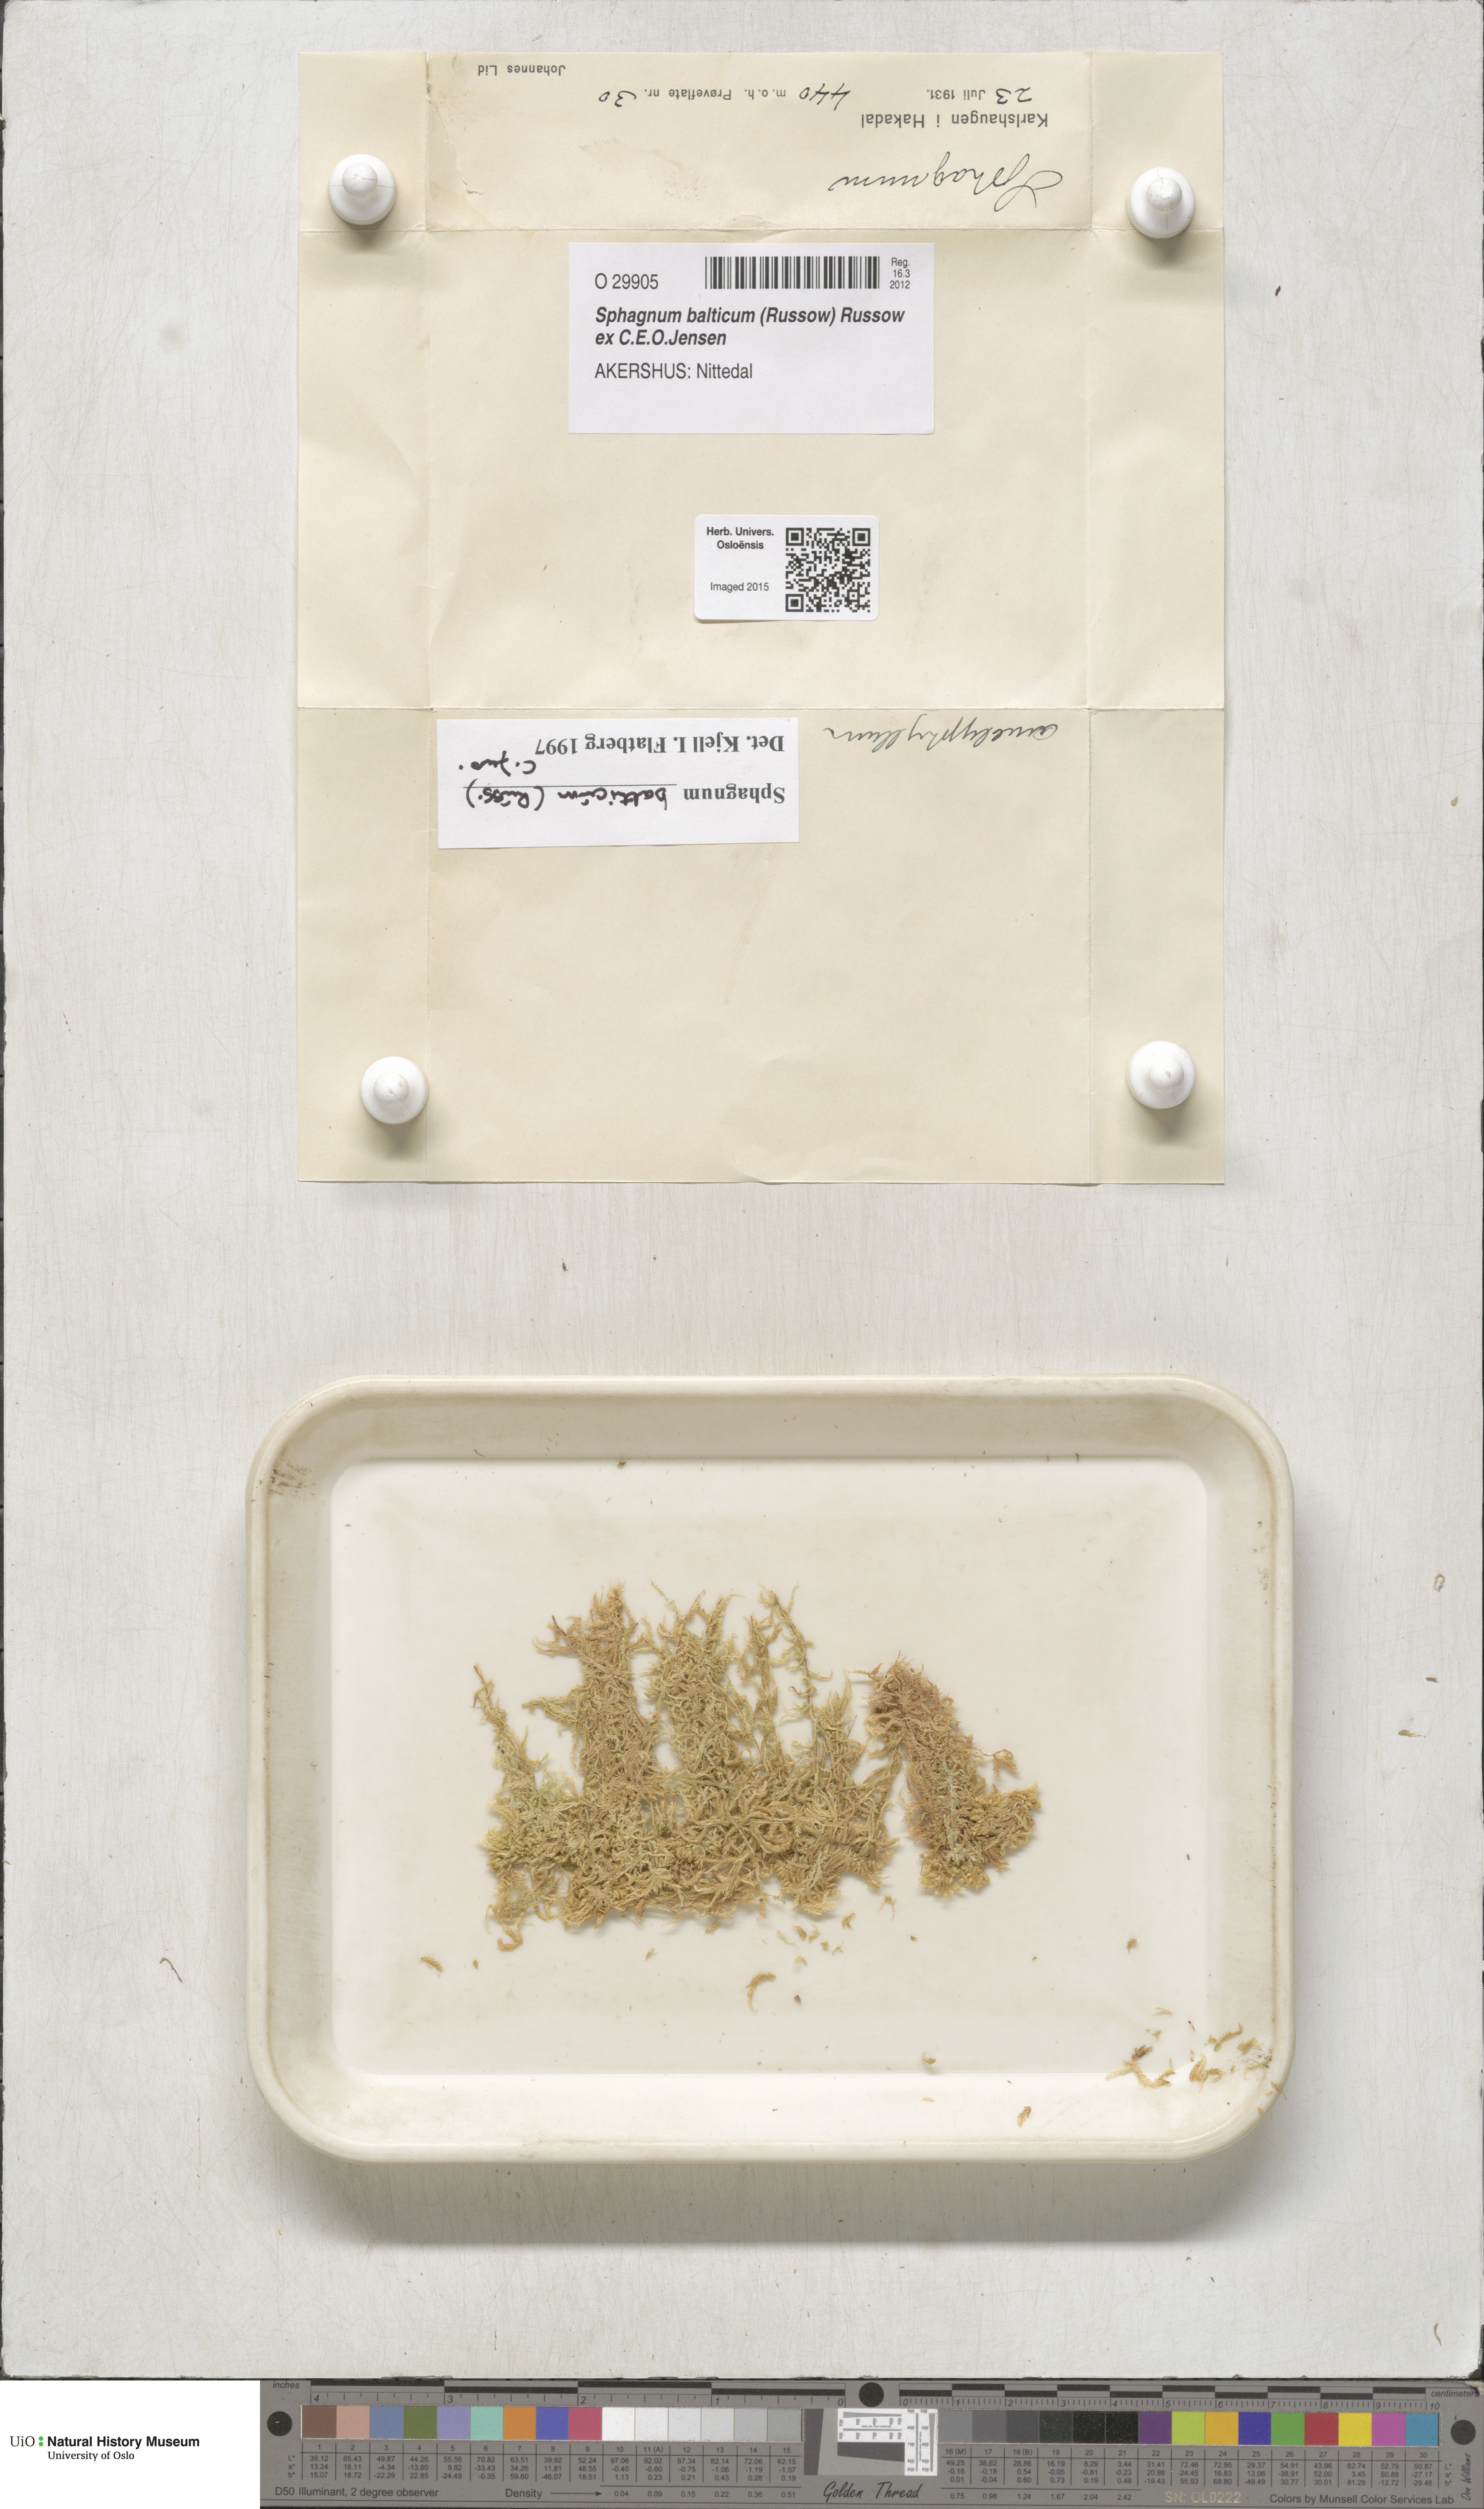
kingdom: Plantae
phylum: Bryophyta
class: Sphagnopsida
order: Sphagnales
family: Sphagnaceae
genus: Sphagnum
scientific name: Sphagnum balticum
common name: Baltic bog-moss
